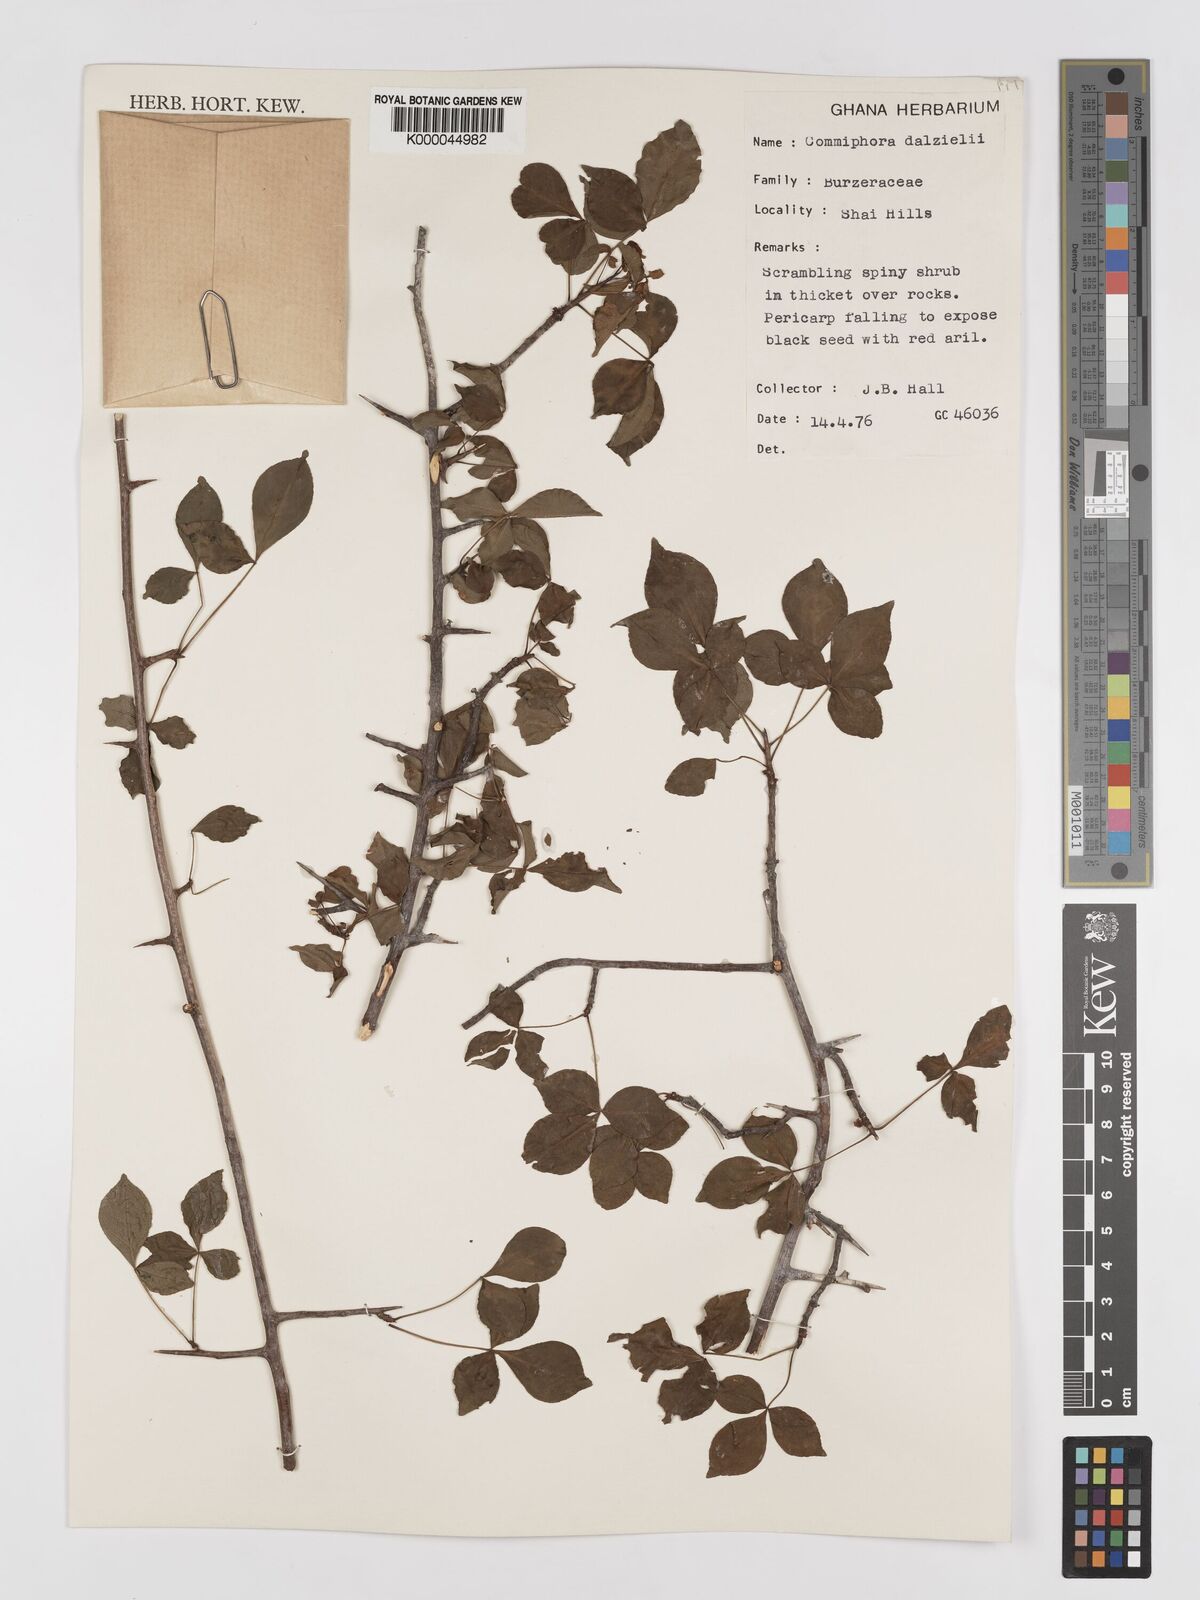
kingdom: Plantae
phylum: Tracheophyta
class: Magnoliopsida
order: Sapindales
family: Burseraceae
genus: Commiphora
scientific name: Commiphora dalzielii
